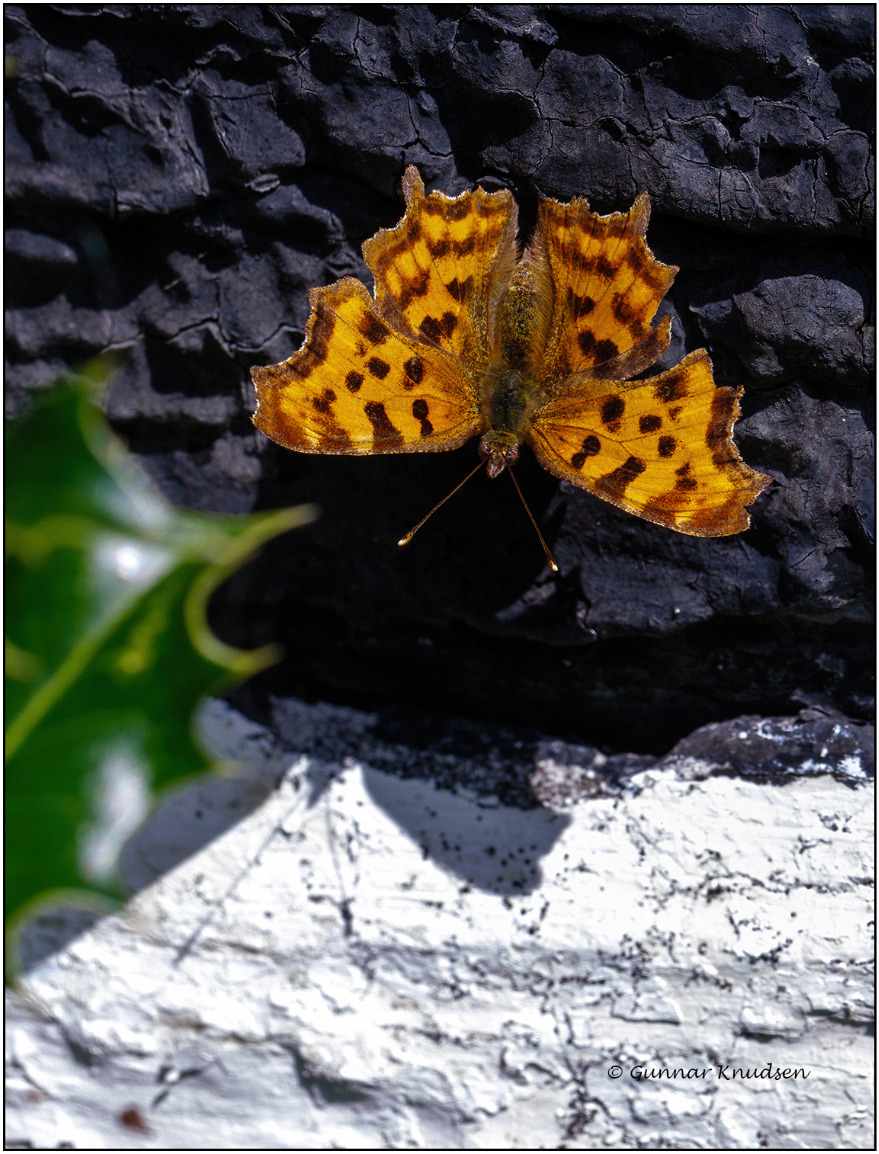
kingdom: Animalia
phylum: Arthropoda
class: Insecta
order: Lepidoptera
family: Nymphalidae
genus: Polygonia
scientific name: Polygonia c-album
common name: Det hvide C
